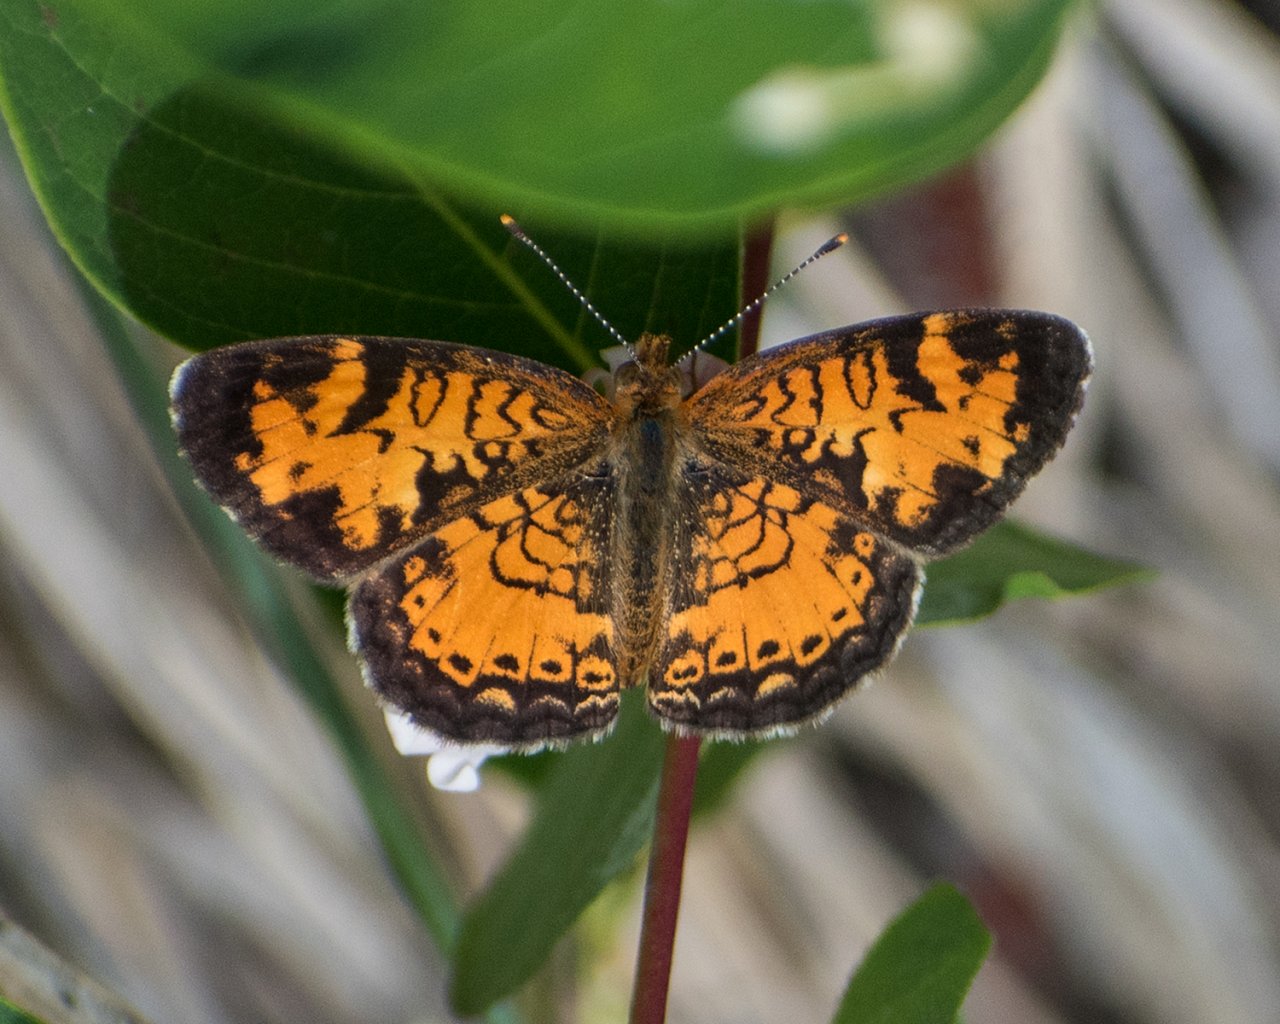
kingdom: Animalia
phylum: Arthropoda
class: Insecta
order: Lepidoptera
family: Nymphalidae
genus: Phyciodes
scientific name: Phyciodes tharos
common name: Northern Crescent
